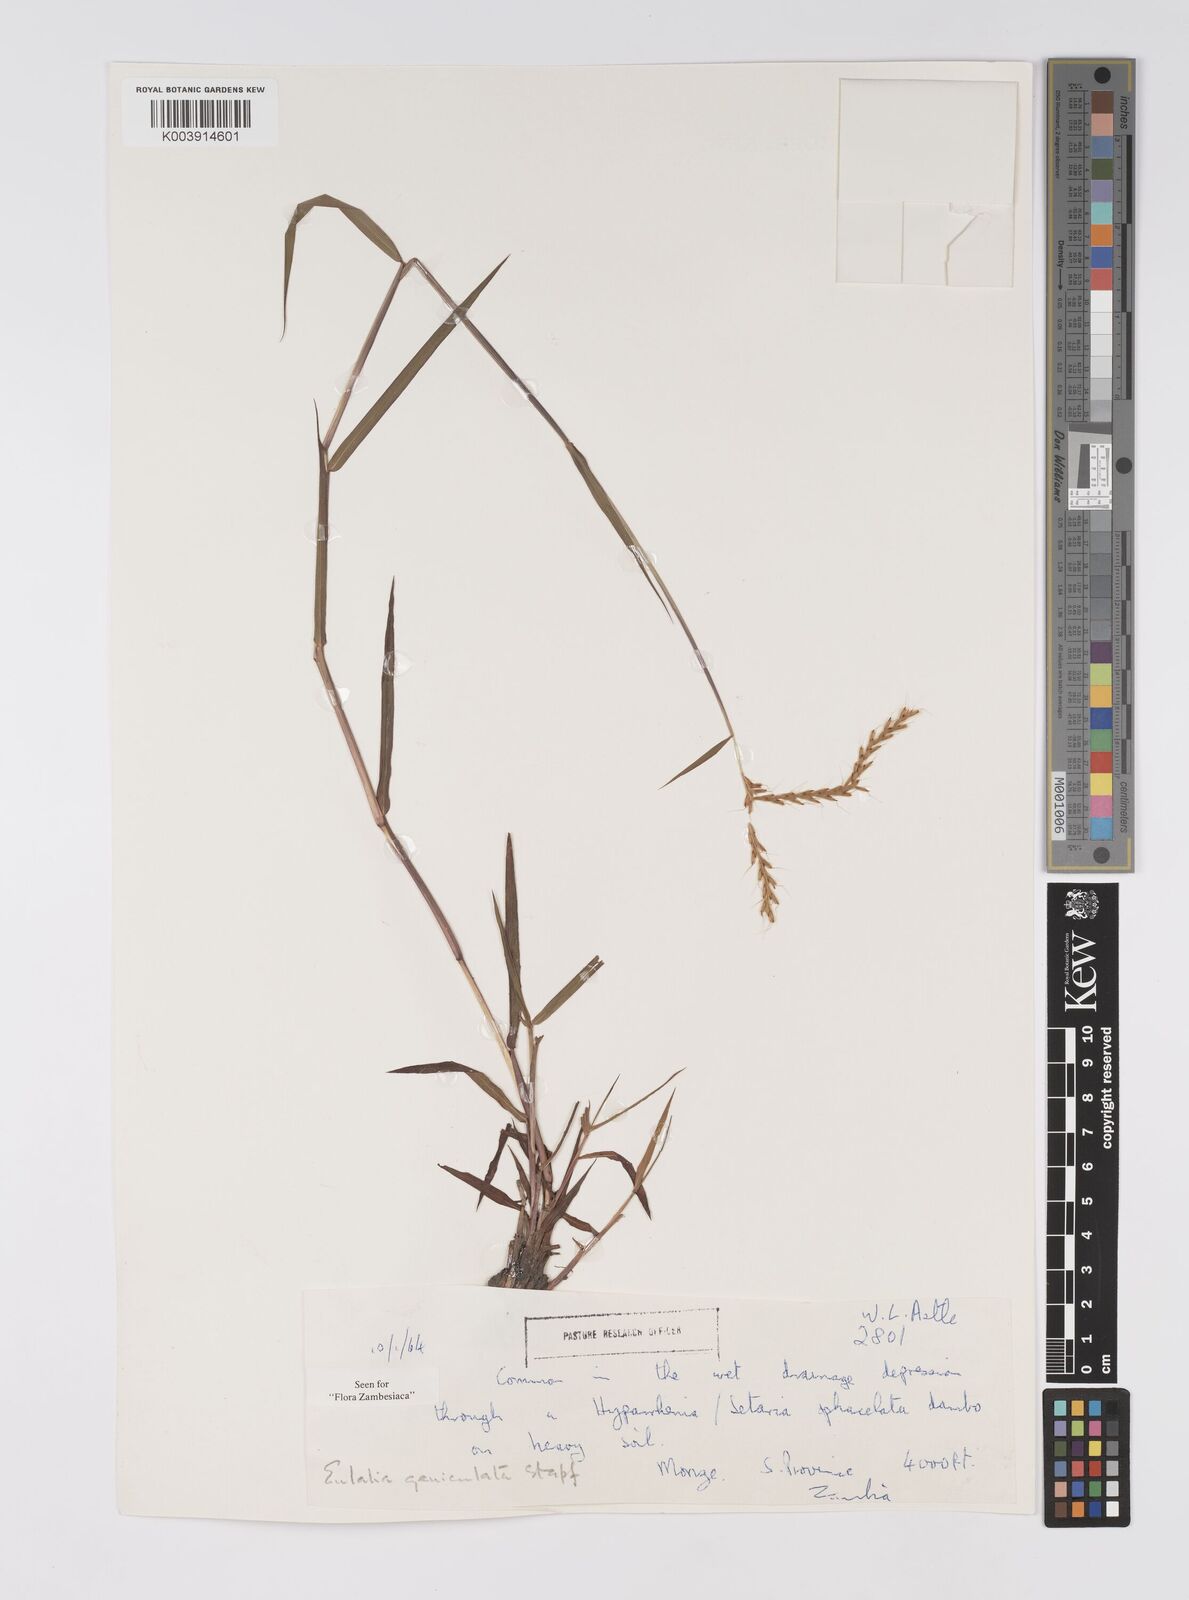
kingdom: Plantae
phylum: Tracheophyta
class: Liliopsida
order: Poales
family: Poaceae
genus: Eulalia
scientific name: Eulalia aurea
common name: Silky browntop
